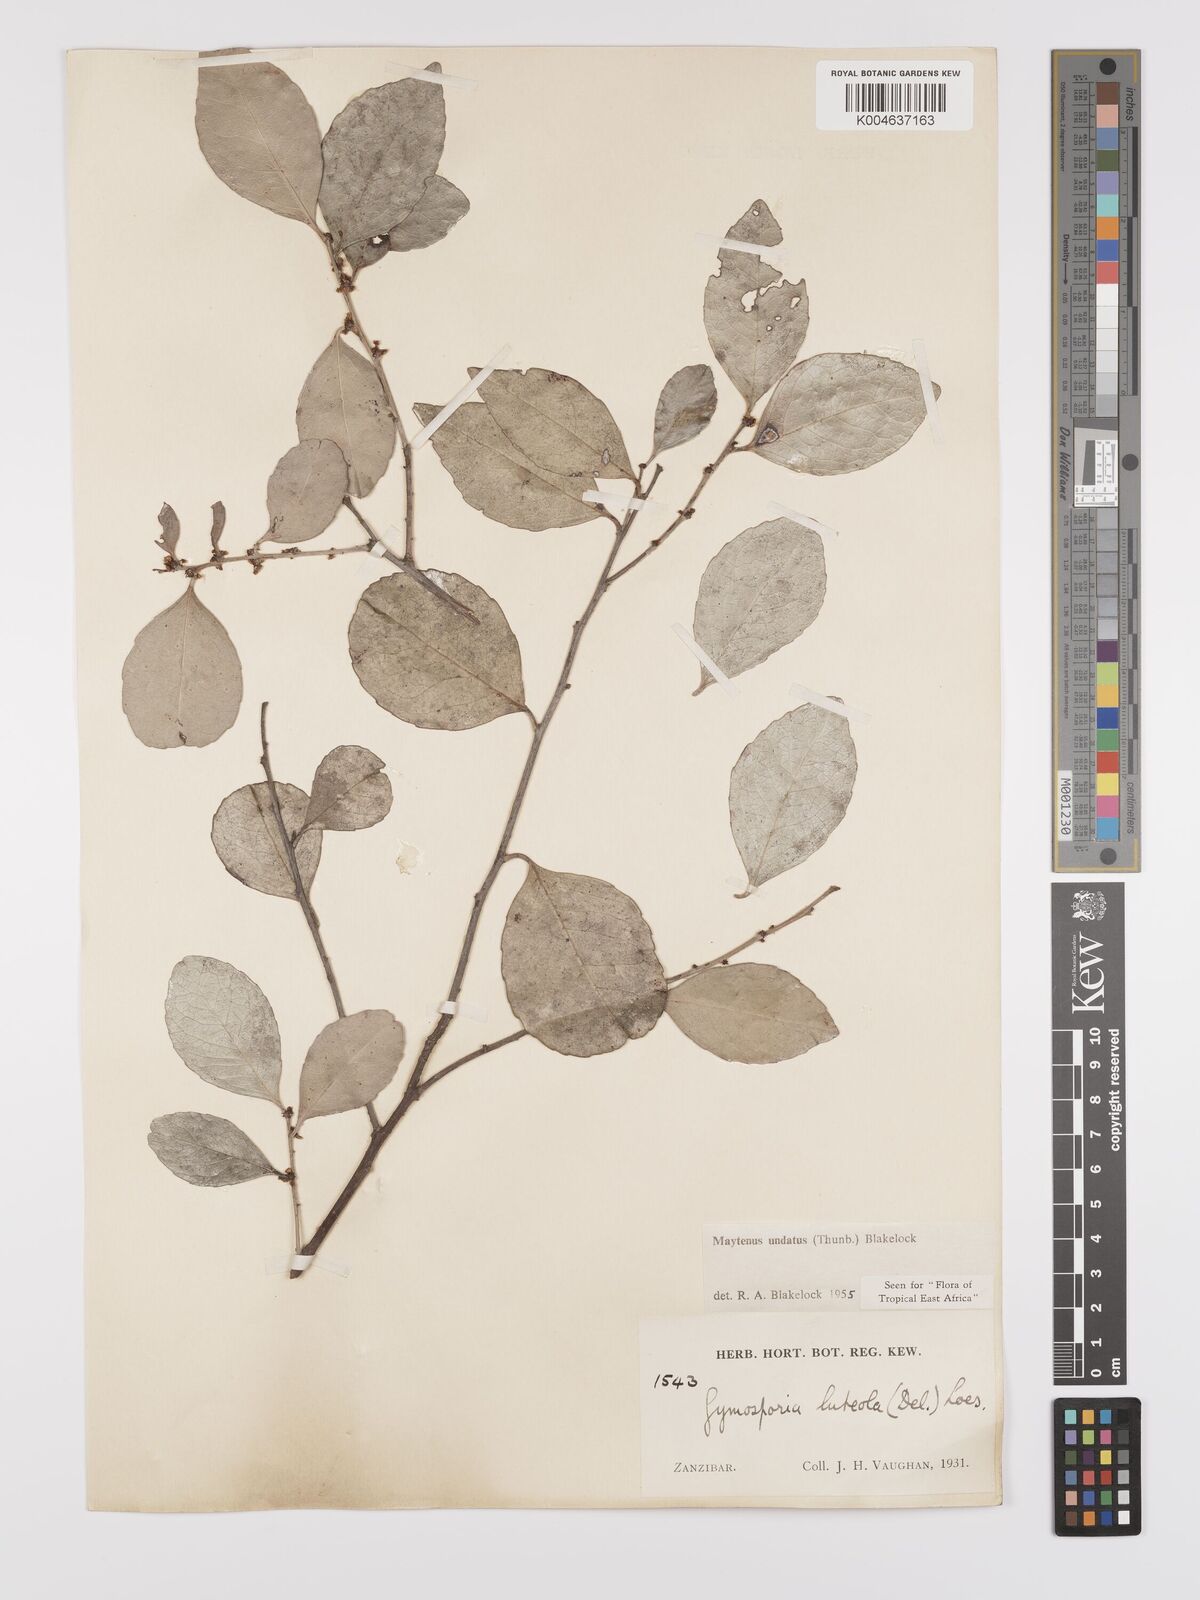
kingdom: Plantae
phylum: Tracheophyta
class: Magnoliopsida
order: Celastrales
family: Celastraceae
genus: Gymnosporia
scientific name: Gymnosporia undata
